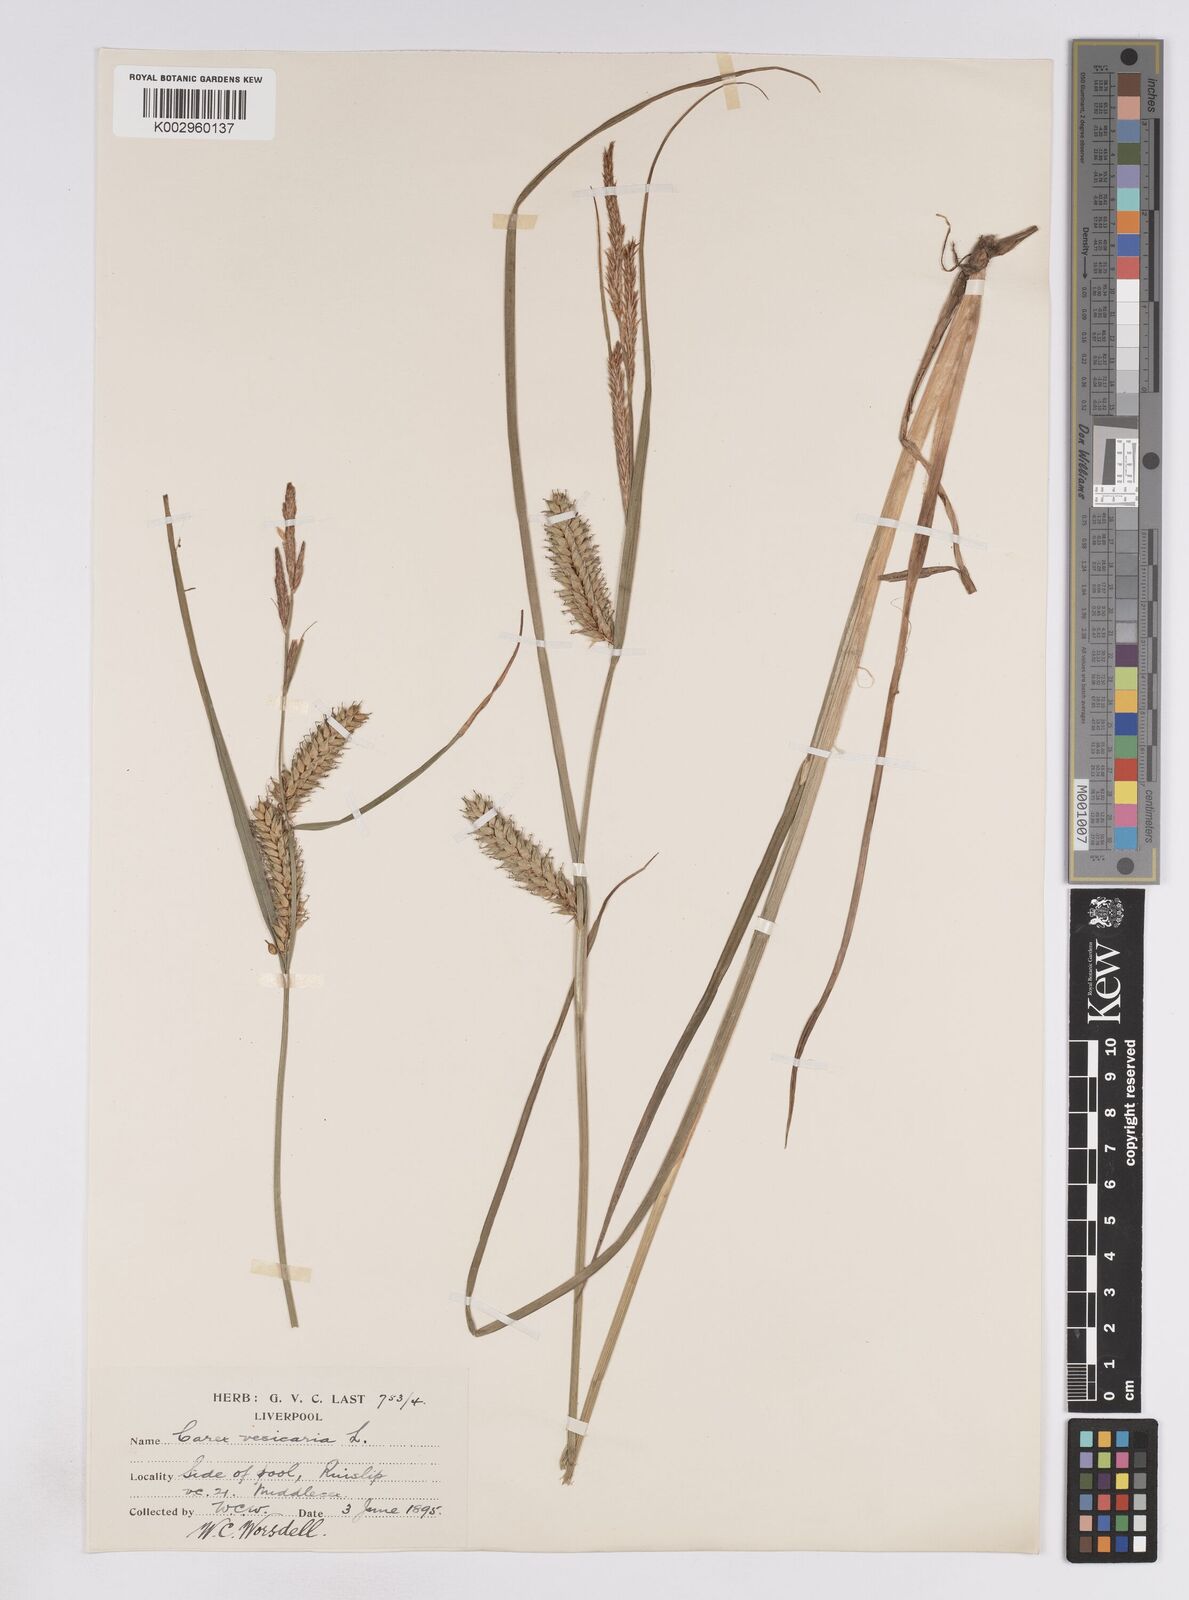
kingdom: Plantae
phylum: Tracheophyta
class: Liliopsida
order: Poales
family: Cyperaceae
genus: Carex
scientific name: Carex vesicaria
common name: Bladder-sedge
